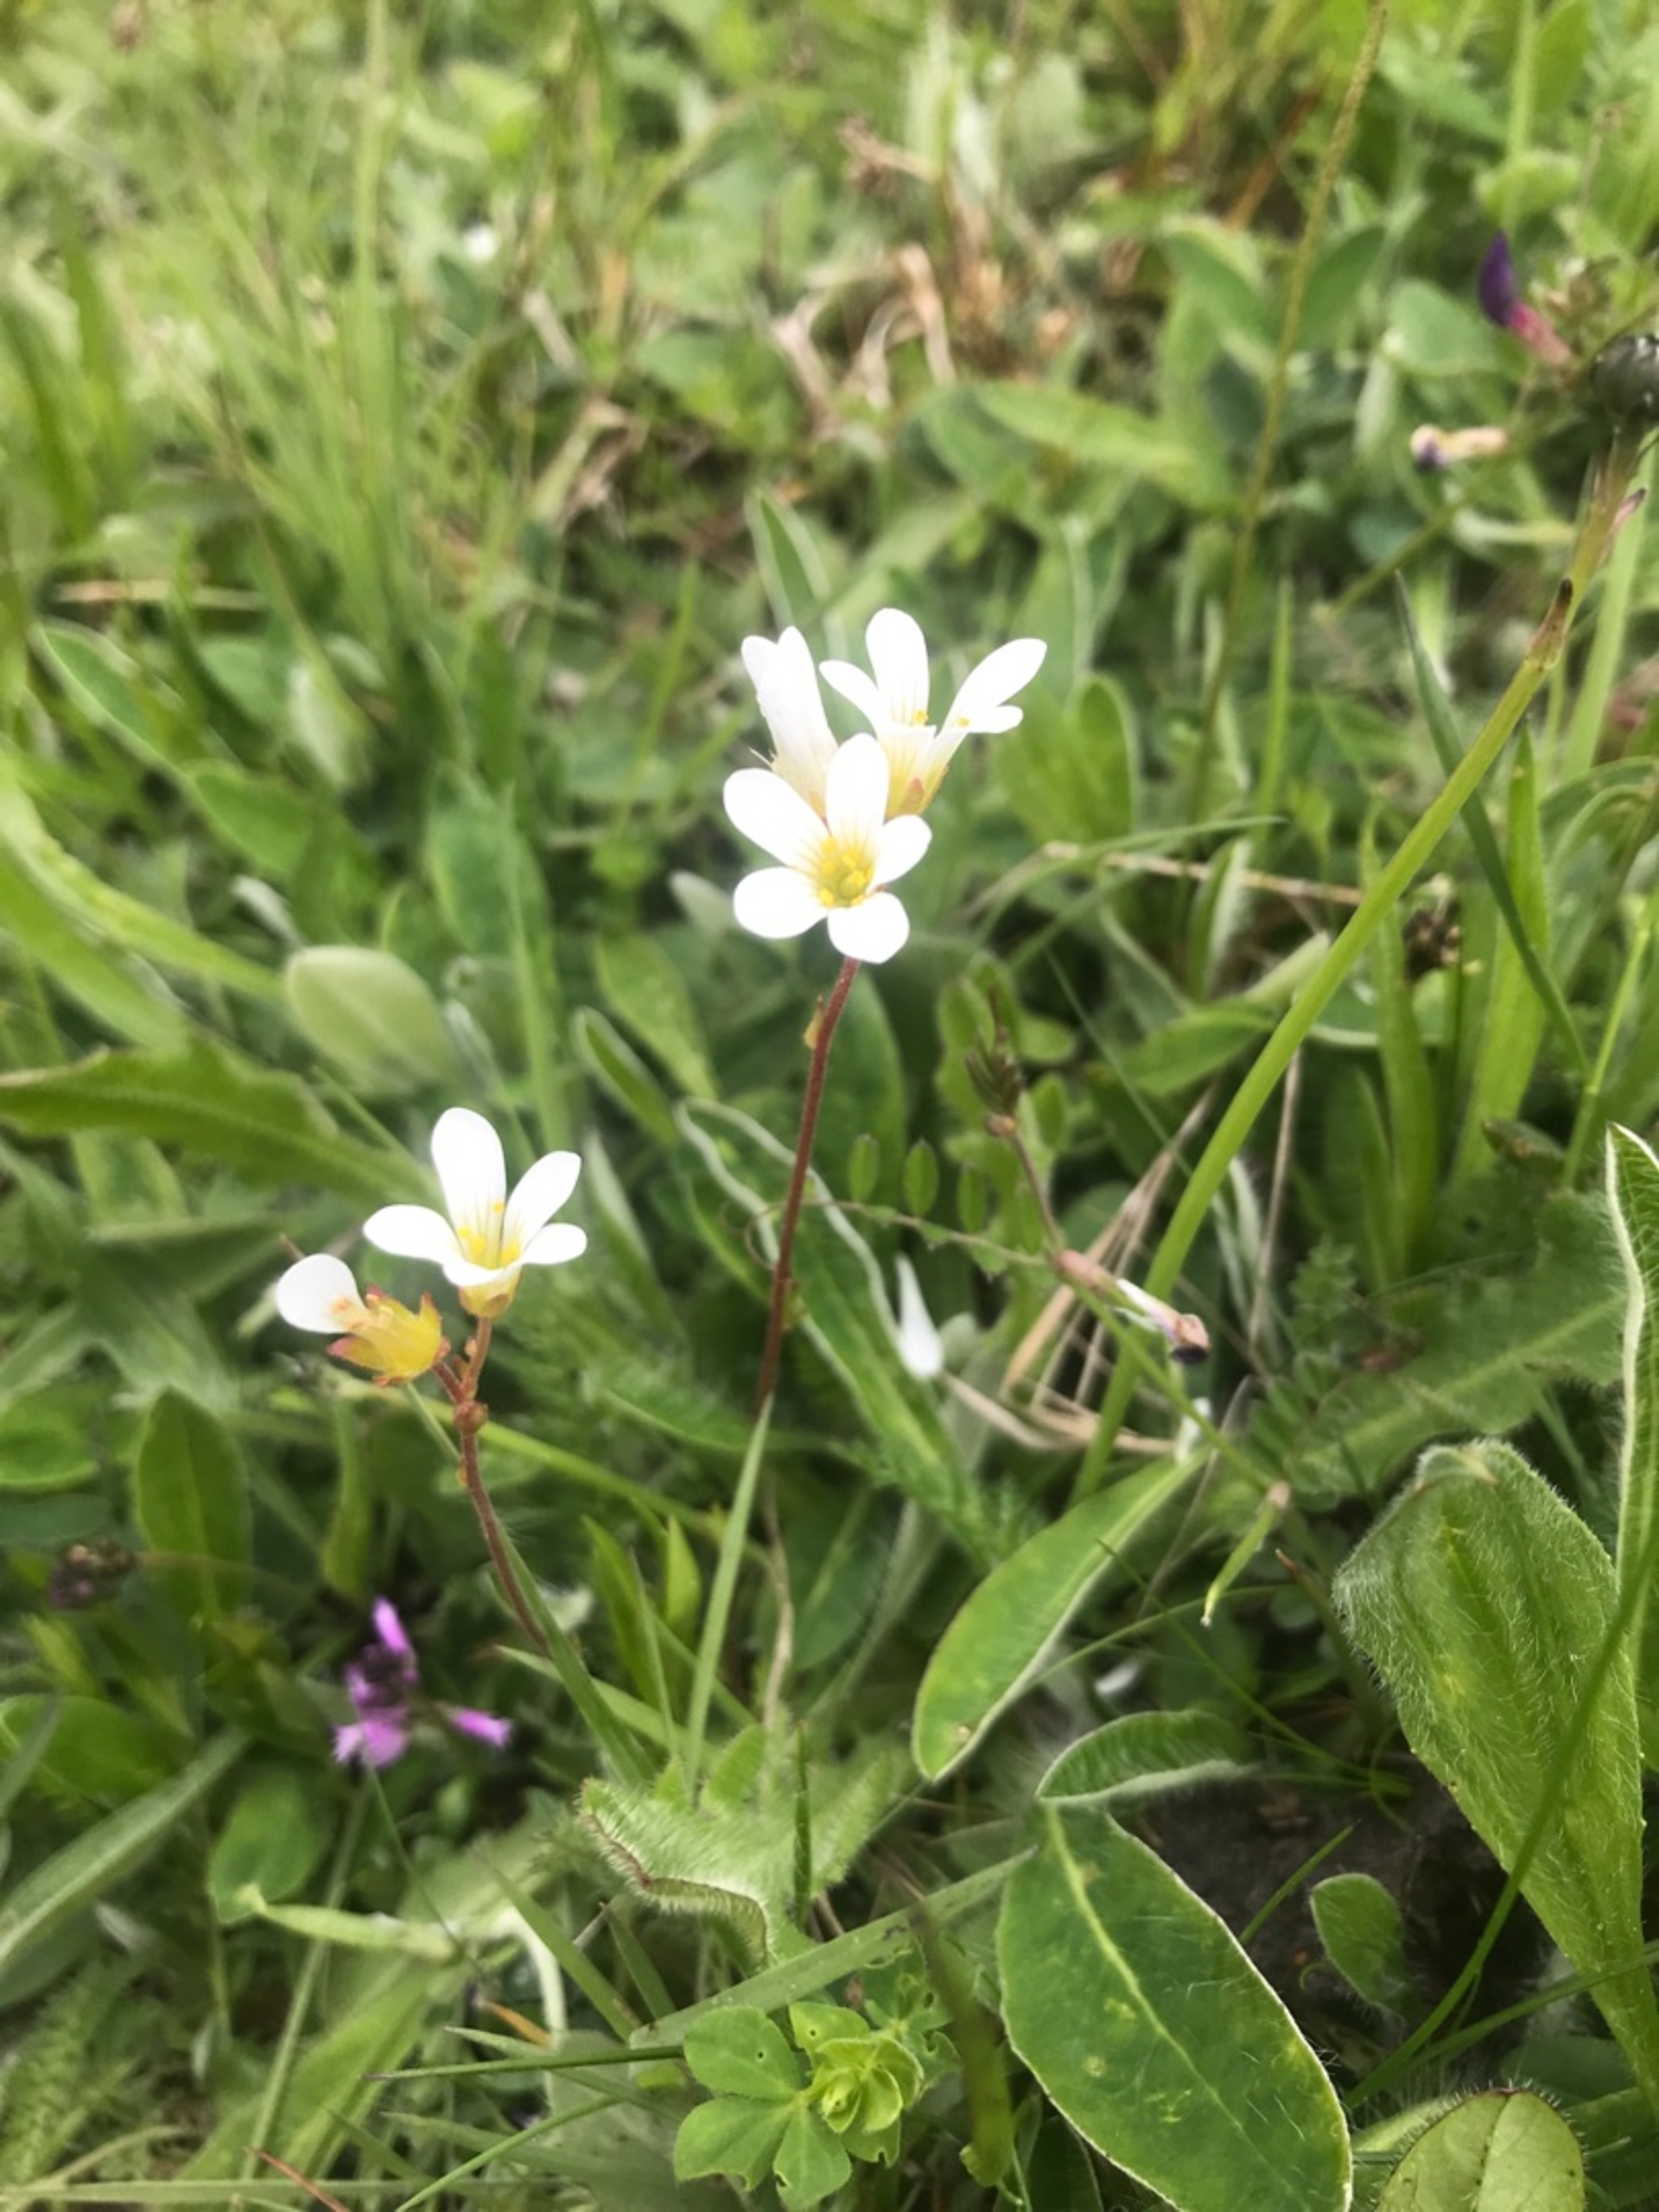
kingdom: Plantae
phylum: Tracheophyta
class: Magnoliopsida
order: Saxifragales
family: Saxifragaceae
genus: Saxifraga
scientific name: Saxifraga granulata
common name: Kornet stenbræk
